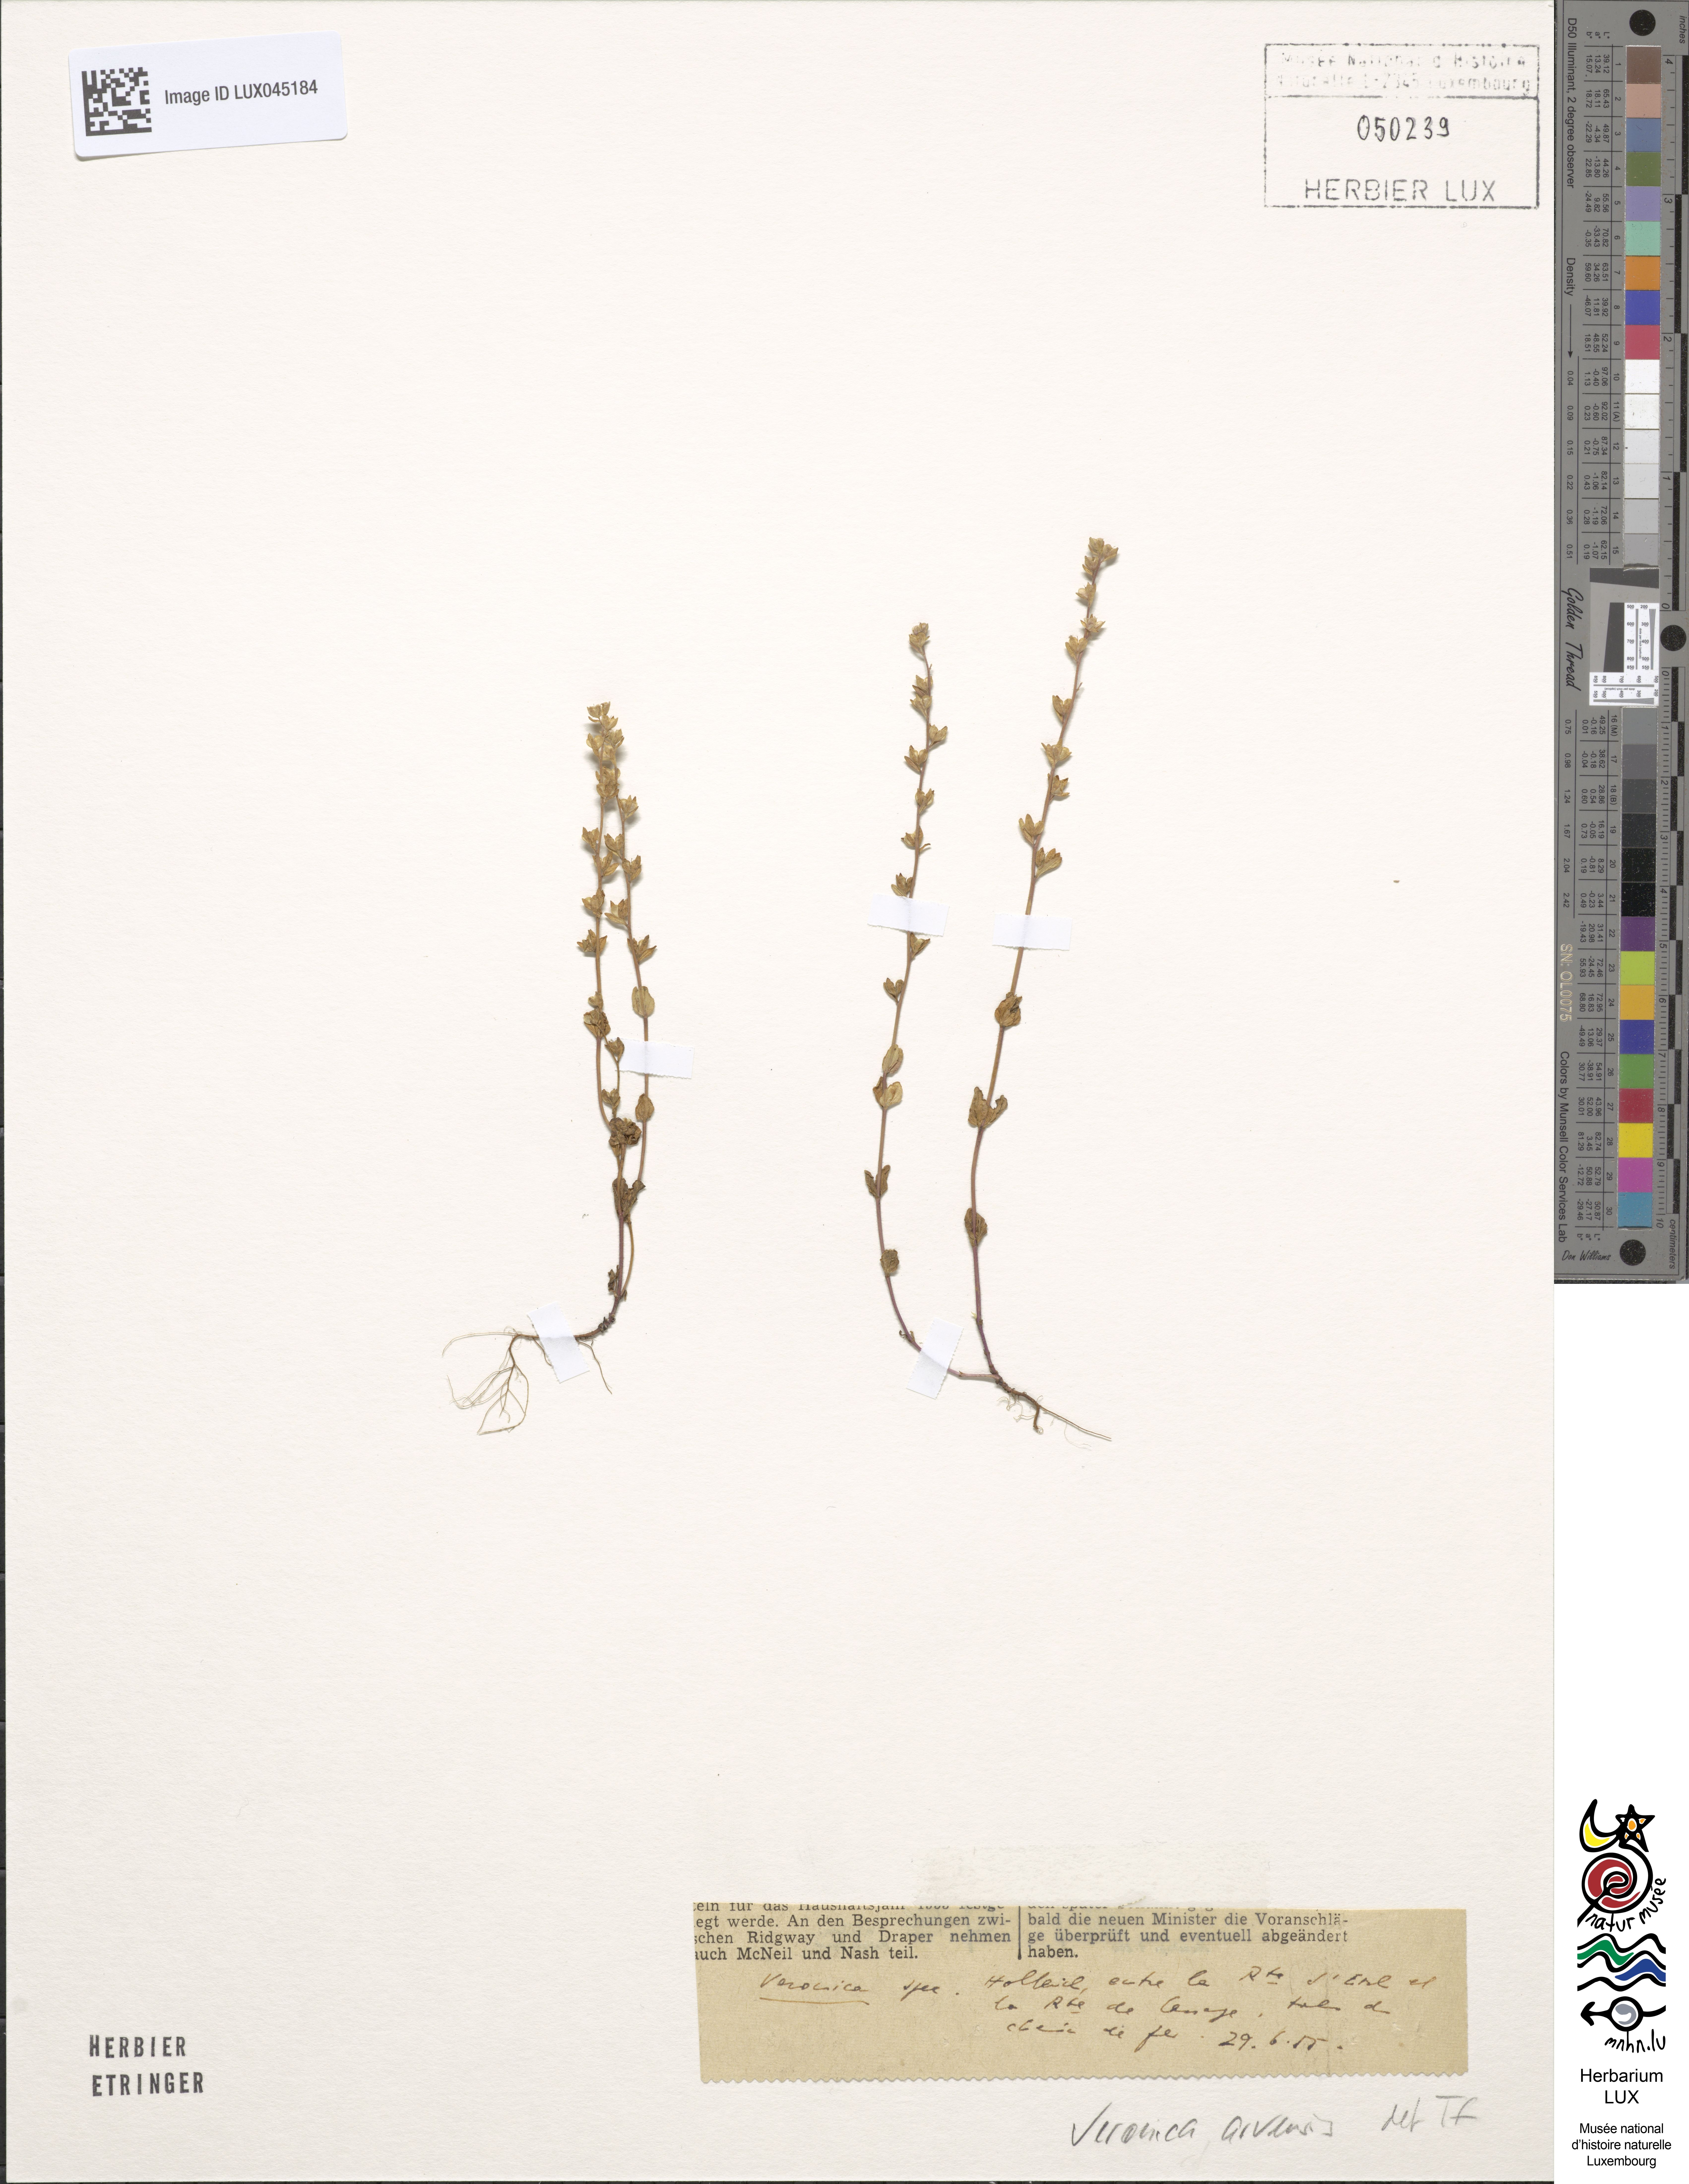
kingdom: Plantae
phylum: Tracheophyta
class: Magnoliopsida
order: Lamiales
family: Plantaginaceae
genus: Veronica
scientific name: Veronica arvensis
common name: Corn speedwell
